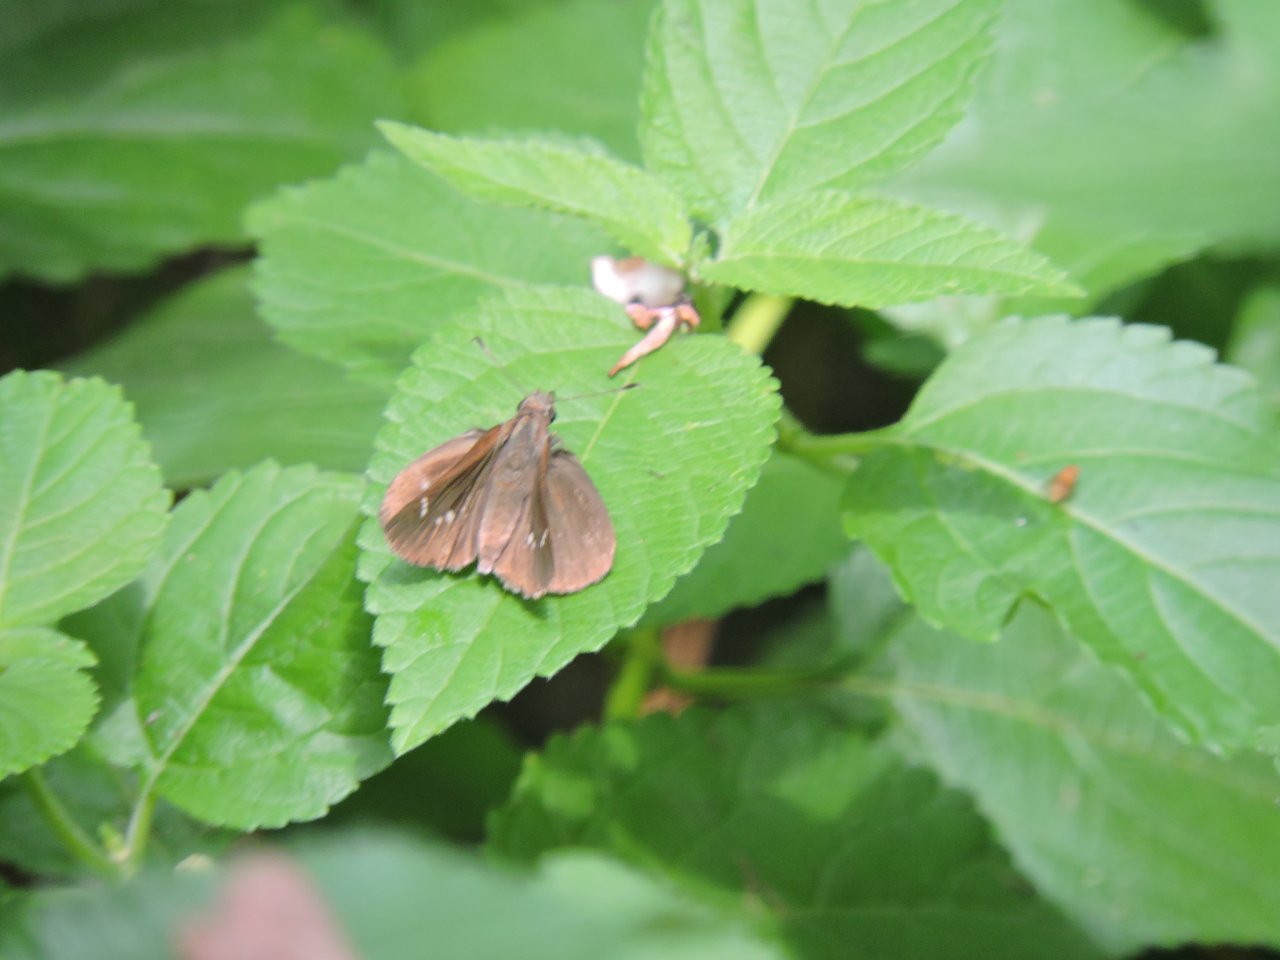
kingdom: Animalia
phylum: Arthropoda
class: Insecta
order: Lepidoptera
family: Hesperiidae
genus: Lerema
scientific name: Lerema accius
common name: Clouded Skipper
